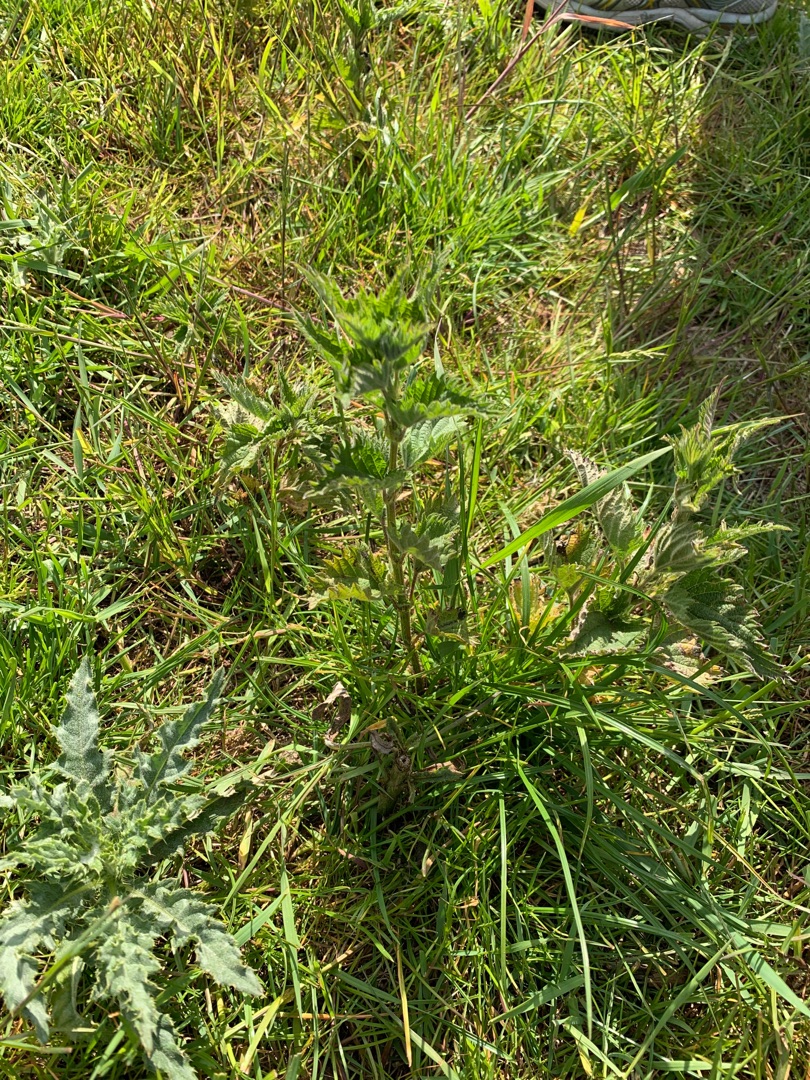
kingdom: Plantae
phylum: Tracheophyta
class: Magnoliopsida
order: Rosales
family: Urticaceae
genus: Urtica
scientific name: Urtica dioica
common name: Stor nælde
